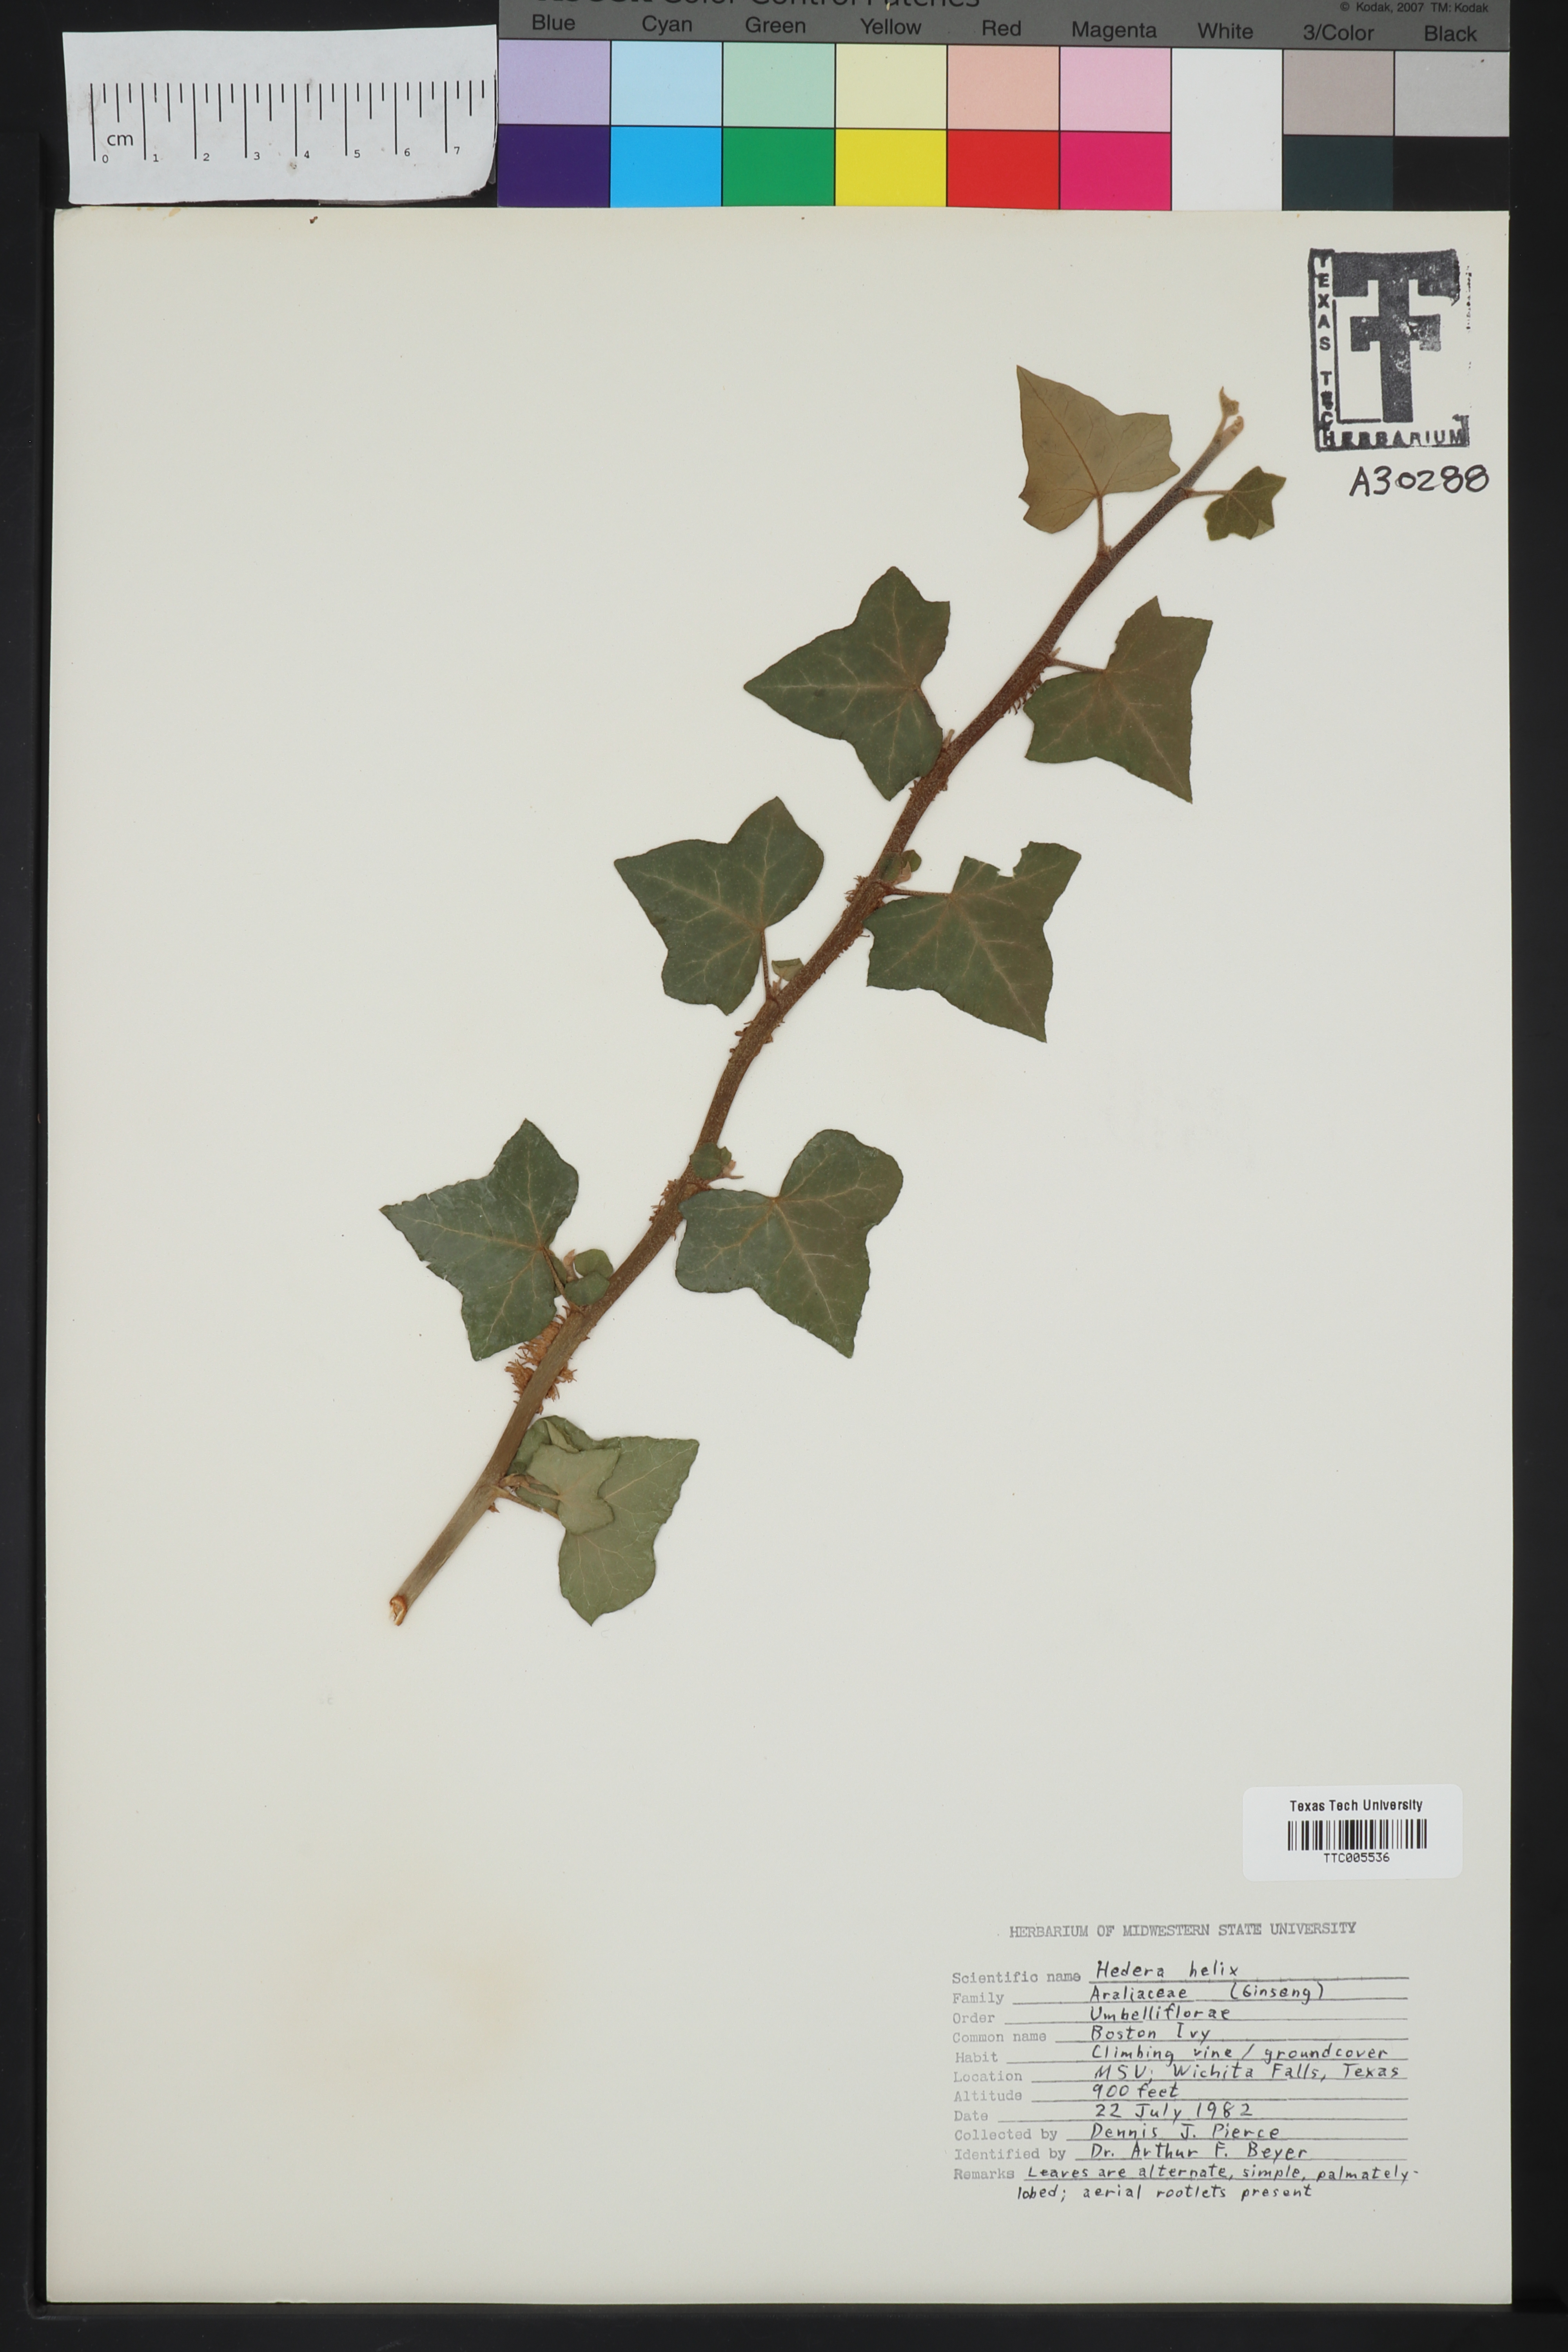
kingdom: Plantae
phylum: Tracheophyta
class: Magnoliopsida
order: Apiales
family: Araliaceae
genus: Hedera
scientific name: Hedera helix
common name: Ivy
